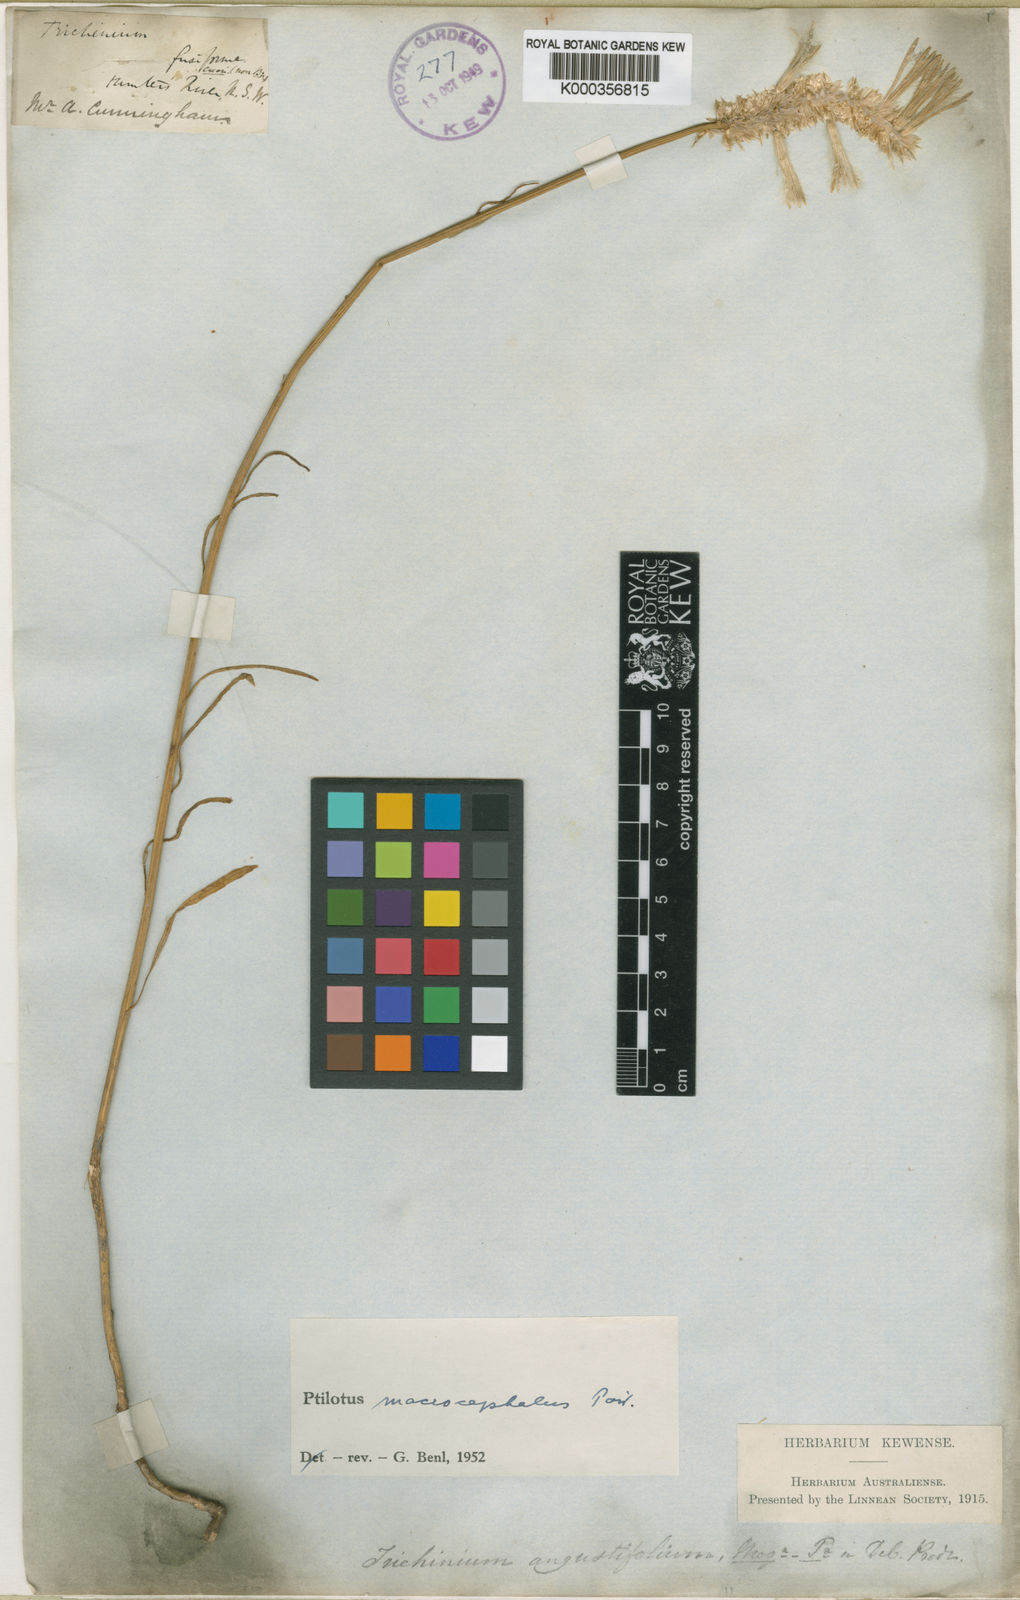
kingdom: Plantae
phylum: Tracheophyta
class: Magnoliopsida
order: Caryophyllales
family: Amaranthaceae
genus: Ptilotus
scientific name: Ptilotus macrocephalus
